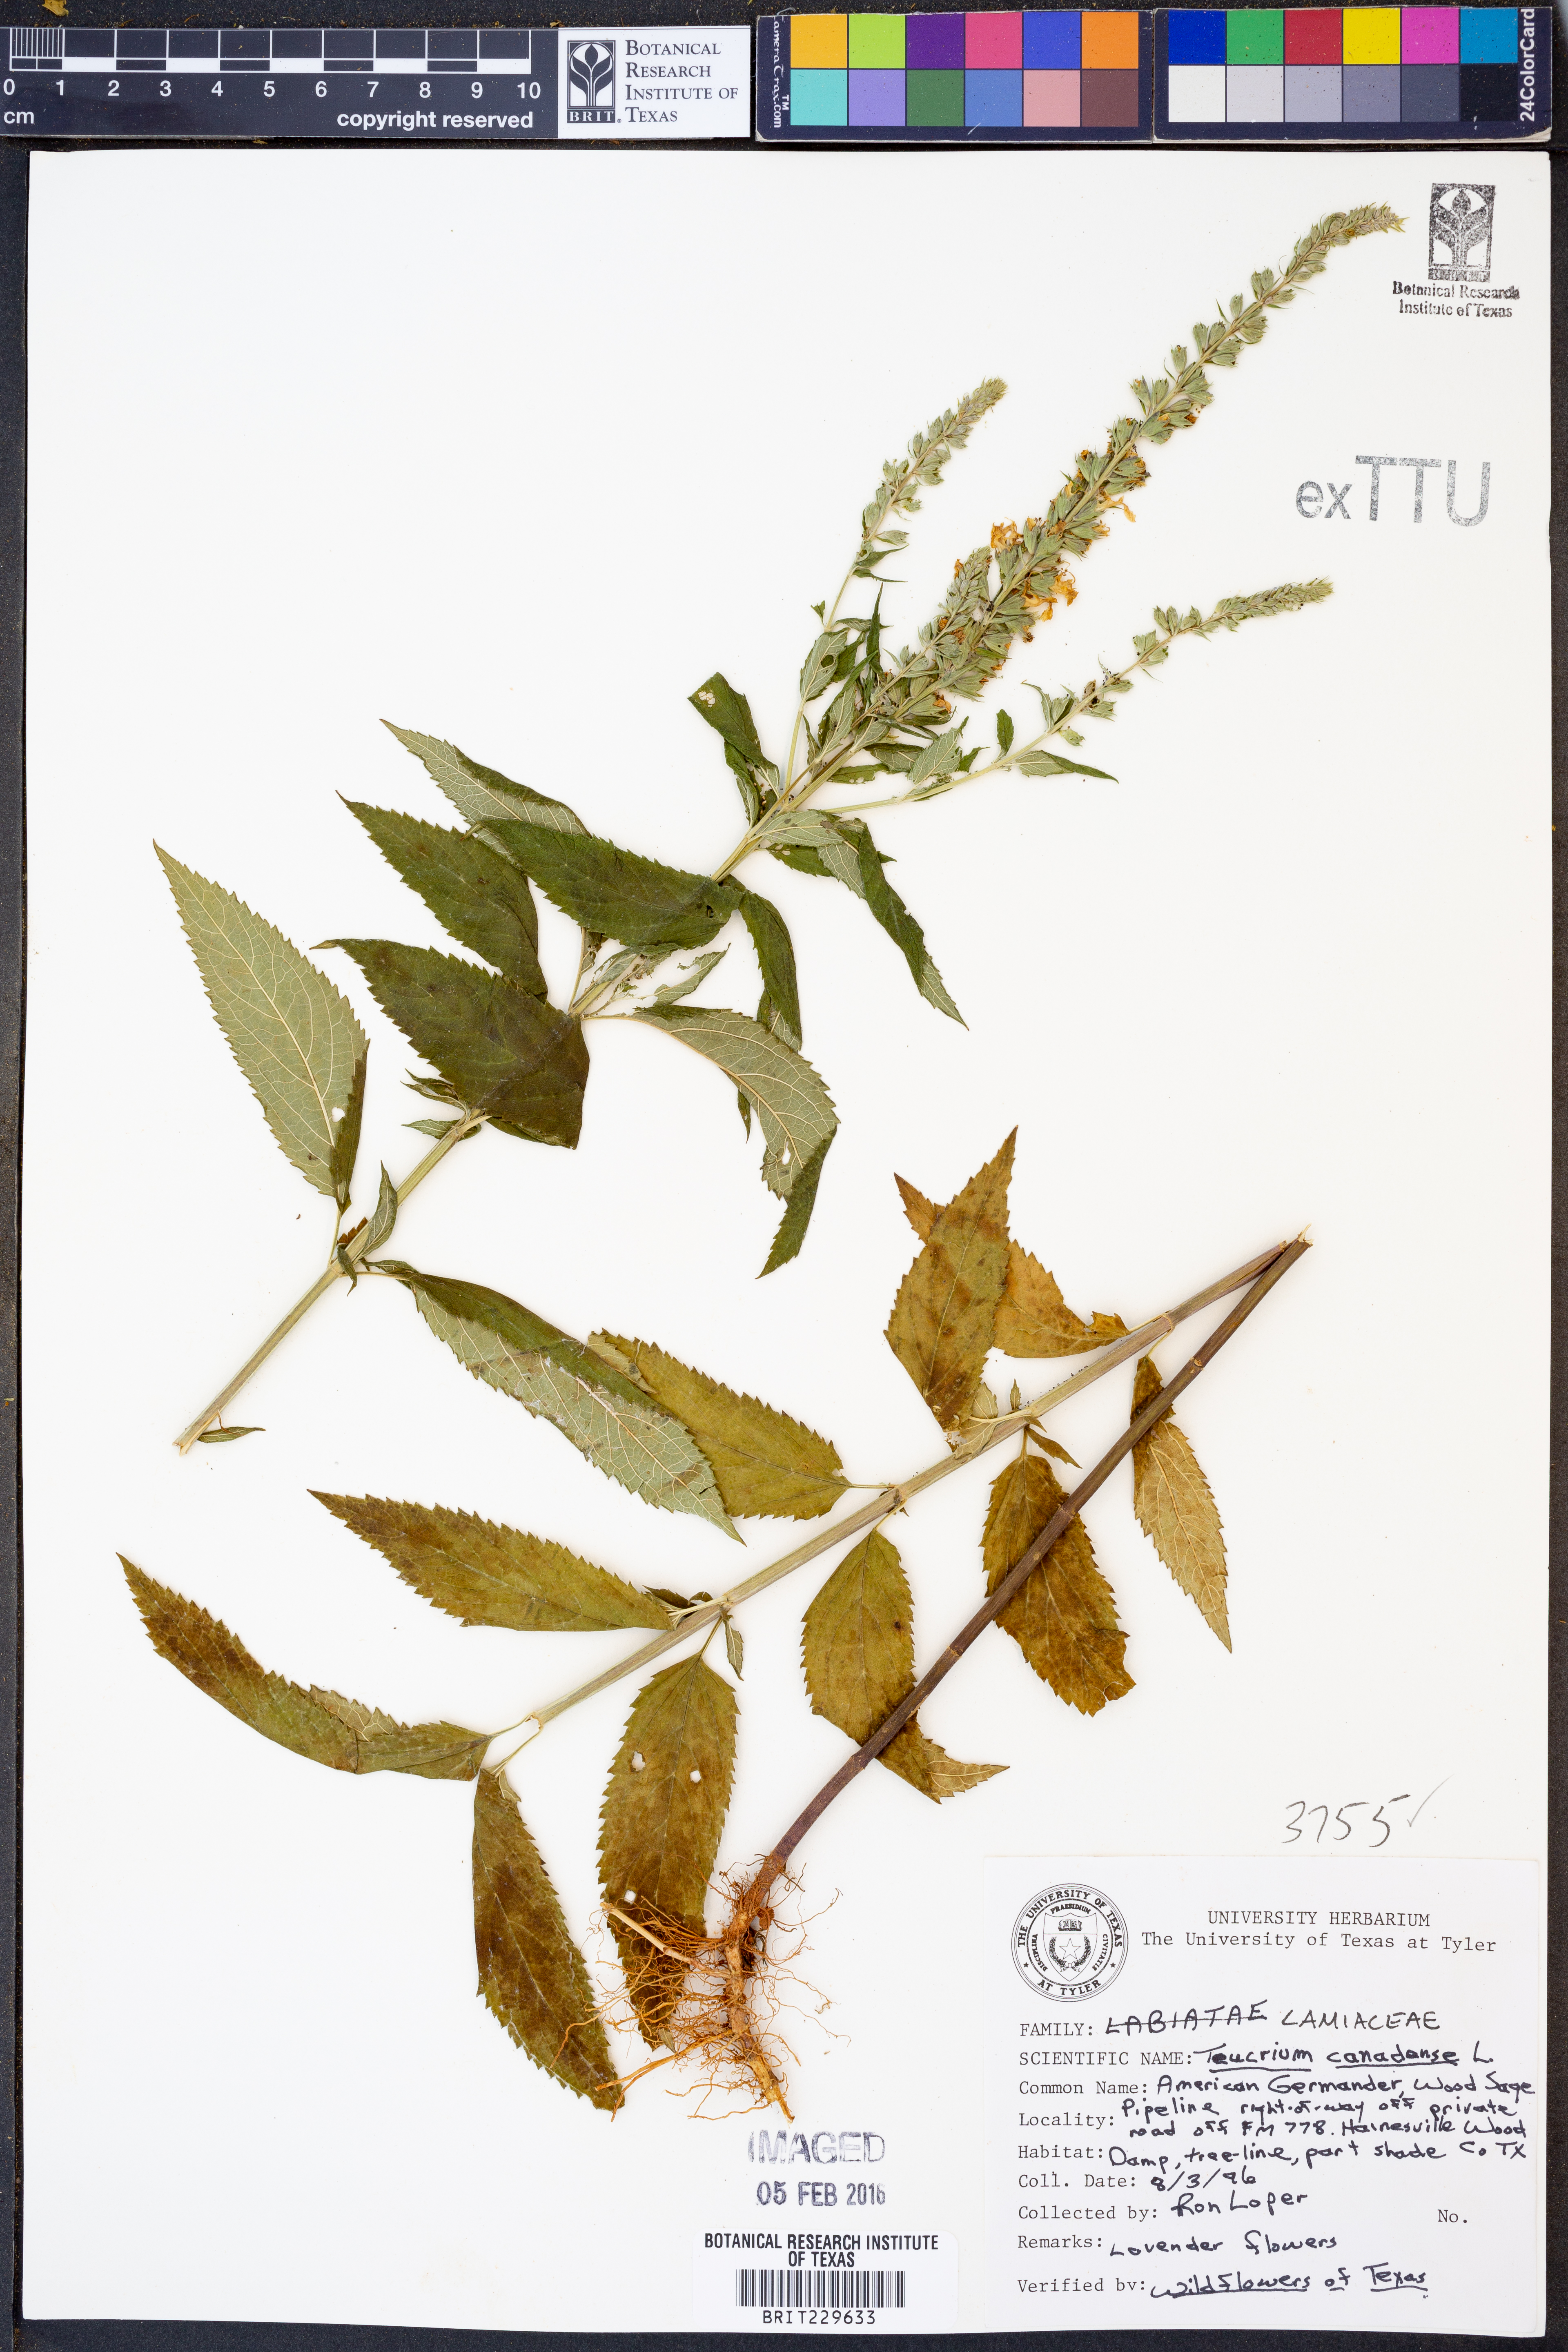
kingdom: Plantae
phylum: Tracheophyta
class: Magnoliopsida
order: Lamiales
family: Lamiaceae
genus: Teucrium
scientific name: Teucrium canadense
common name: American germander
